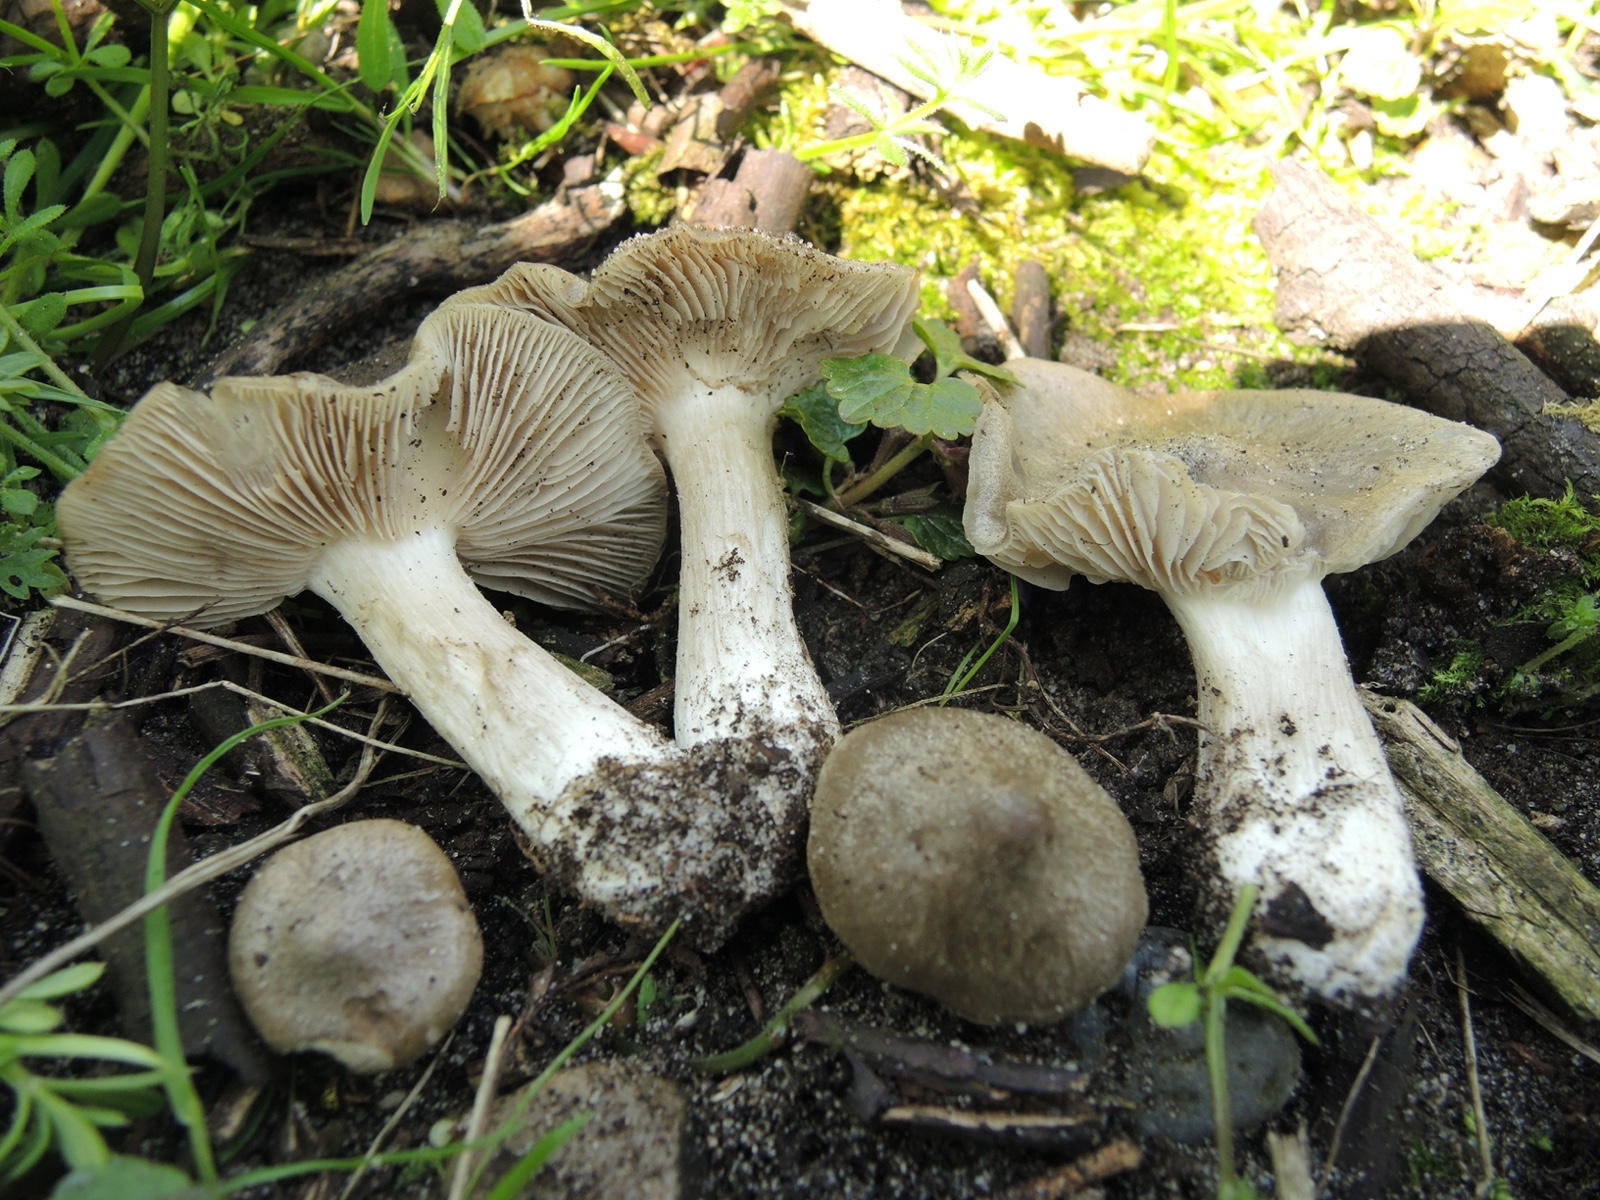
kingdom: Fungi
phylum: Basidiomycota
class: Agaricomycetes
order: Agaricales
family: Entolomataceae
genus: Entoloma
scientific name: Entoloma clypeatum
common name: flammet rødblad
